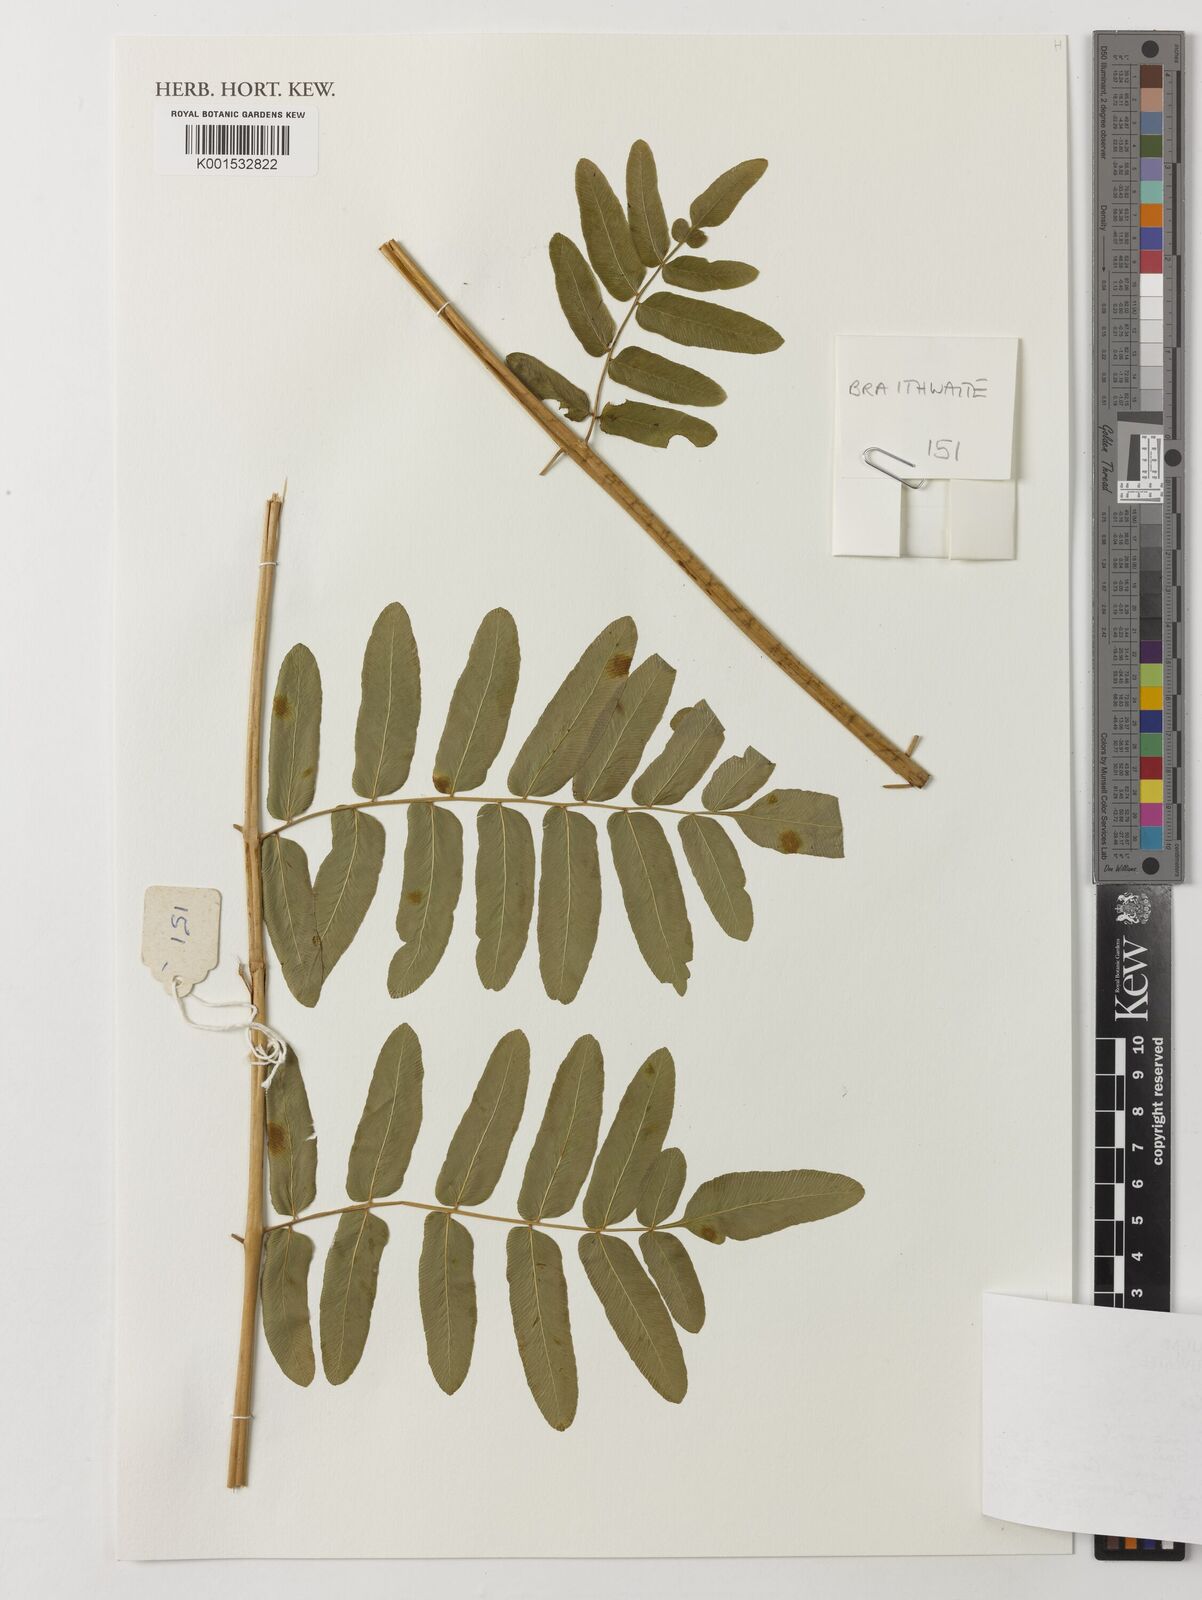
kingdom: Plantae
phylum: Tracheophyta
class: Polypodiopsida
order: Osmundales
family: Osmundaceae
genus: Osmunda
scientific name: Osmunda regalis
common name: Royal fern
